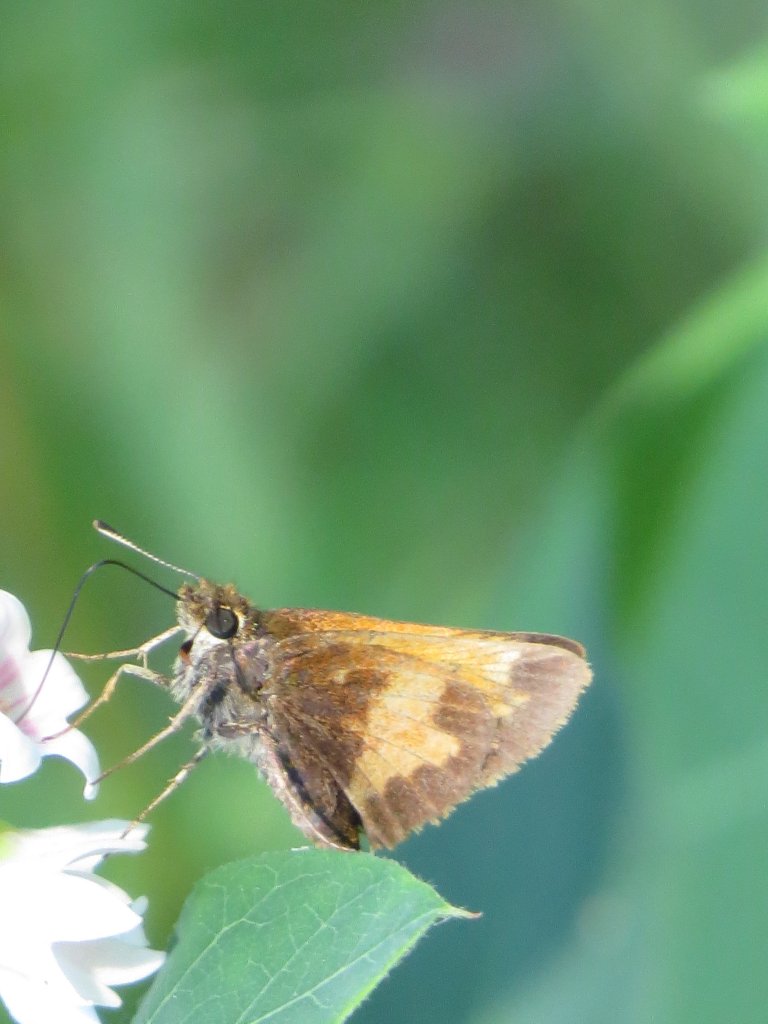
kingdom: Animalia
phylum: Arthropoda
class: Insecta
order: Lepidoptera
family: Hesperiidae
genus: Lon
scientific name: Lon hobomok
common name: Hobomok Skipper
